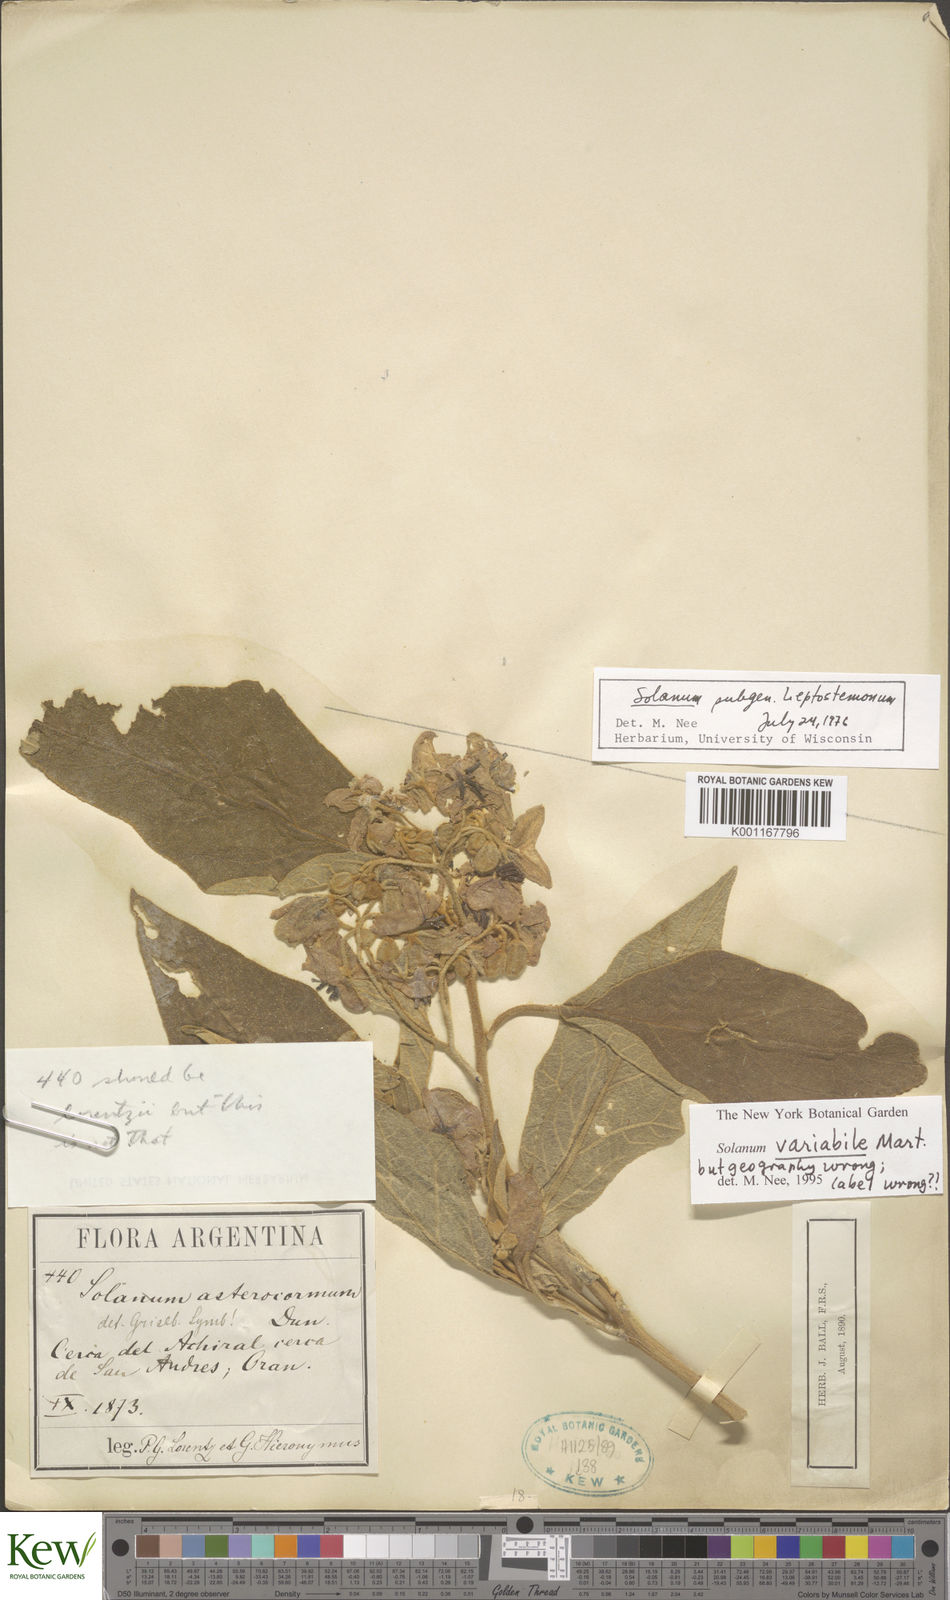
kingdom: Plantae
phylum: Tracheophyta
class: Magnoliopsida
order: Solanales
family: Solanaceae
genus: Solanum
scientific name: Solanum variabile
